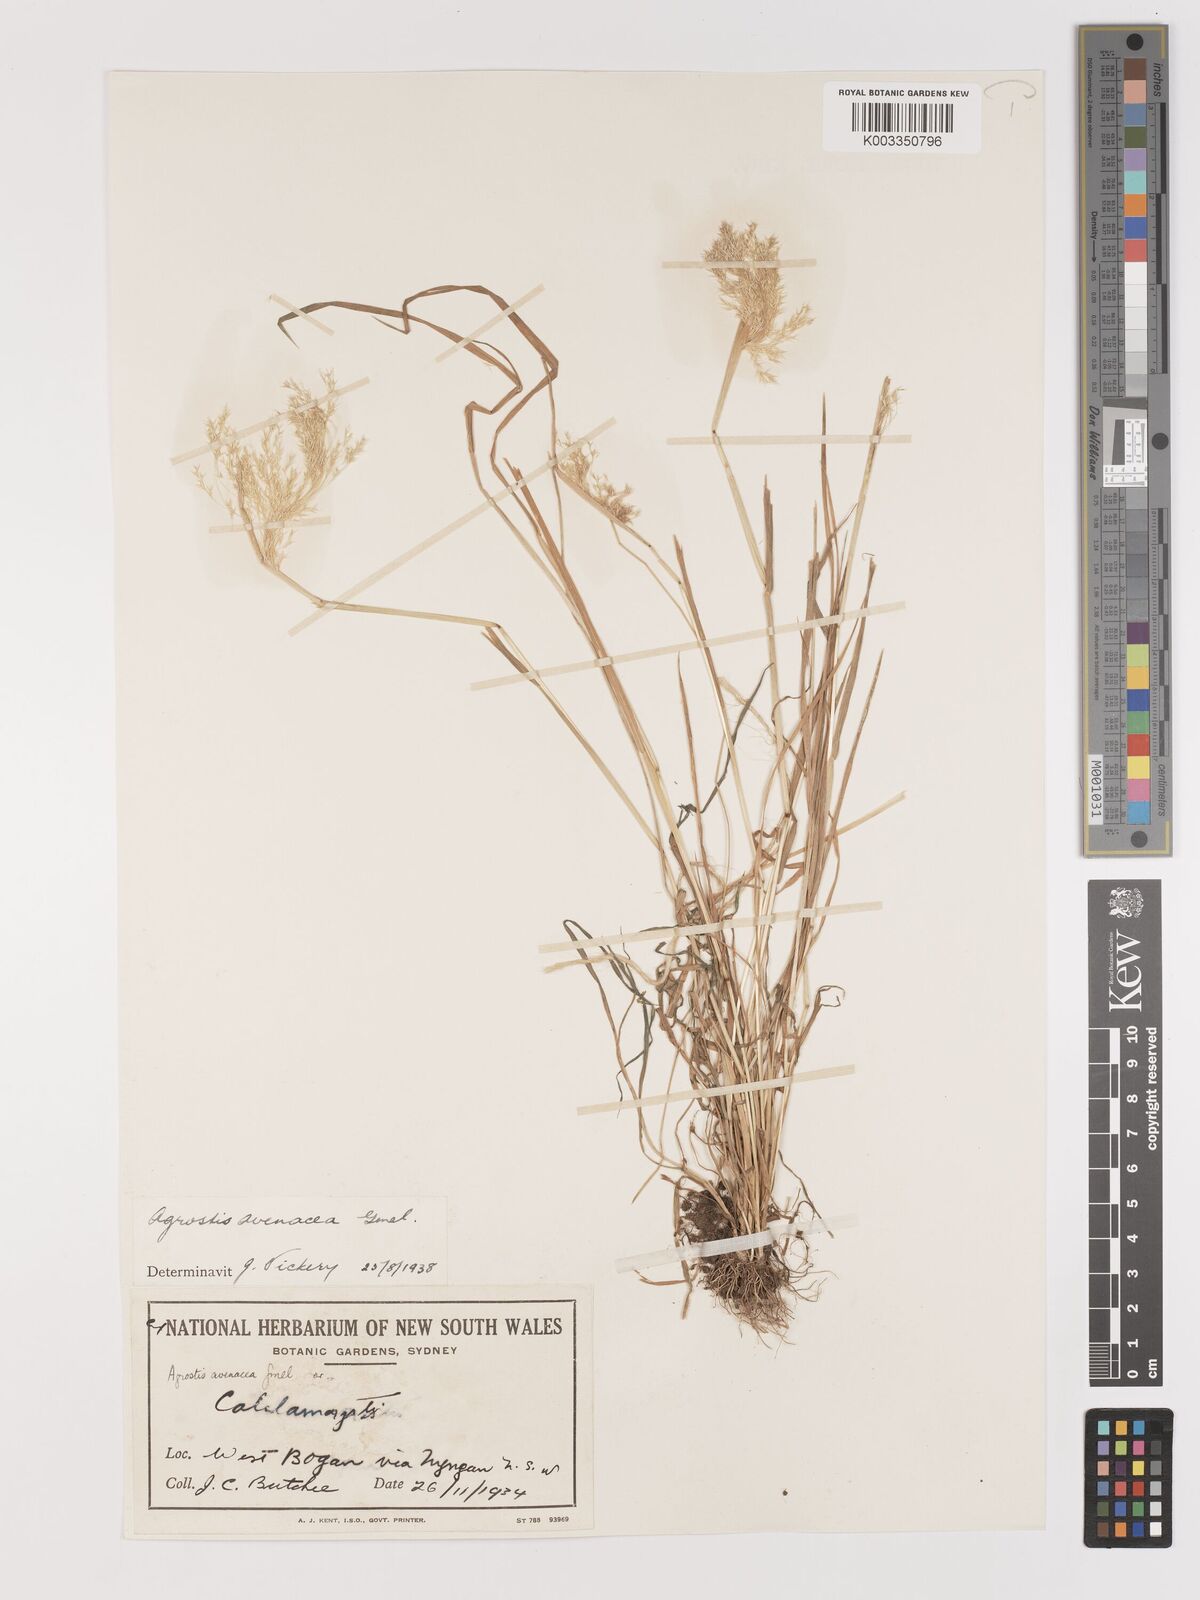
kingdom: Plantae
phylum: Tracheophyta
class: Liliopsida
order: Poales
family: Poaceae
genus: Lachnagrostis
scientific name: Lachnagrostis filiformis
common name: Bentgrass
